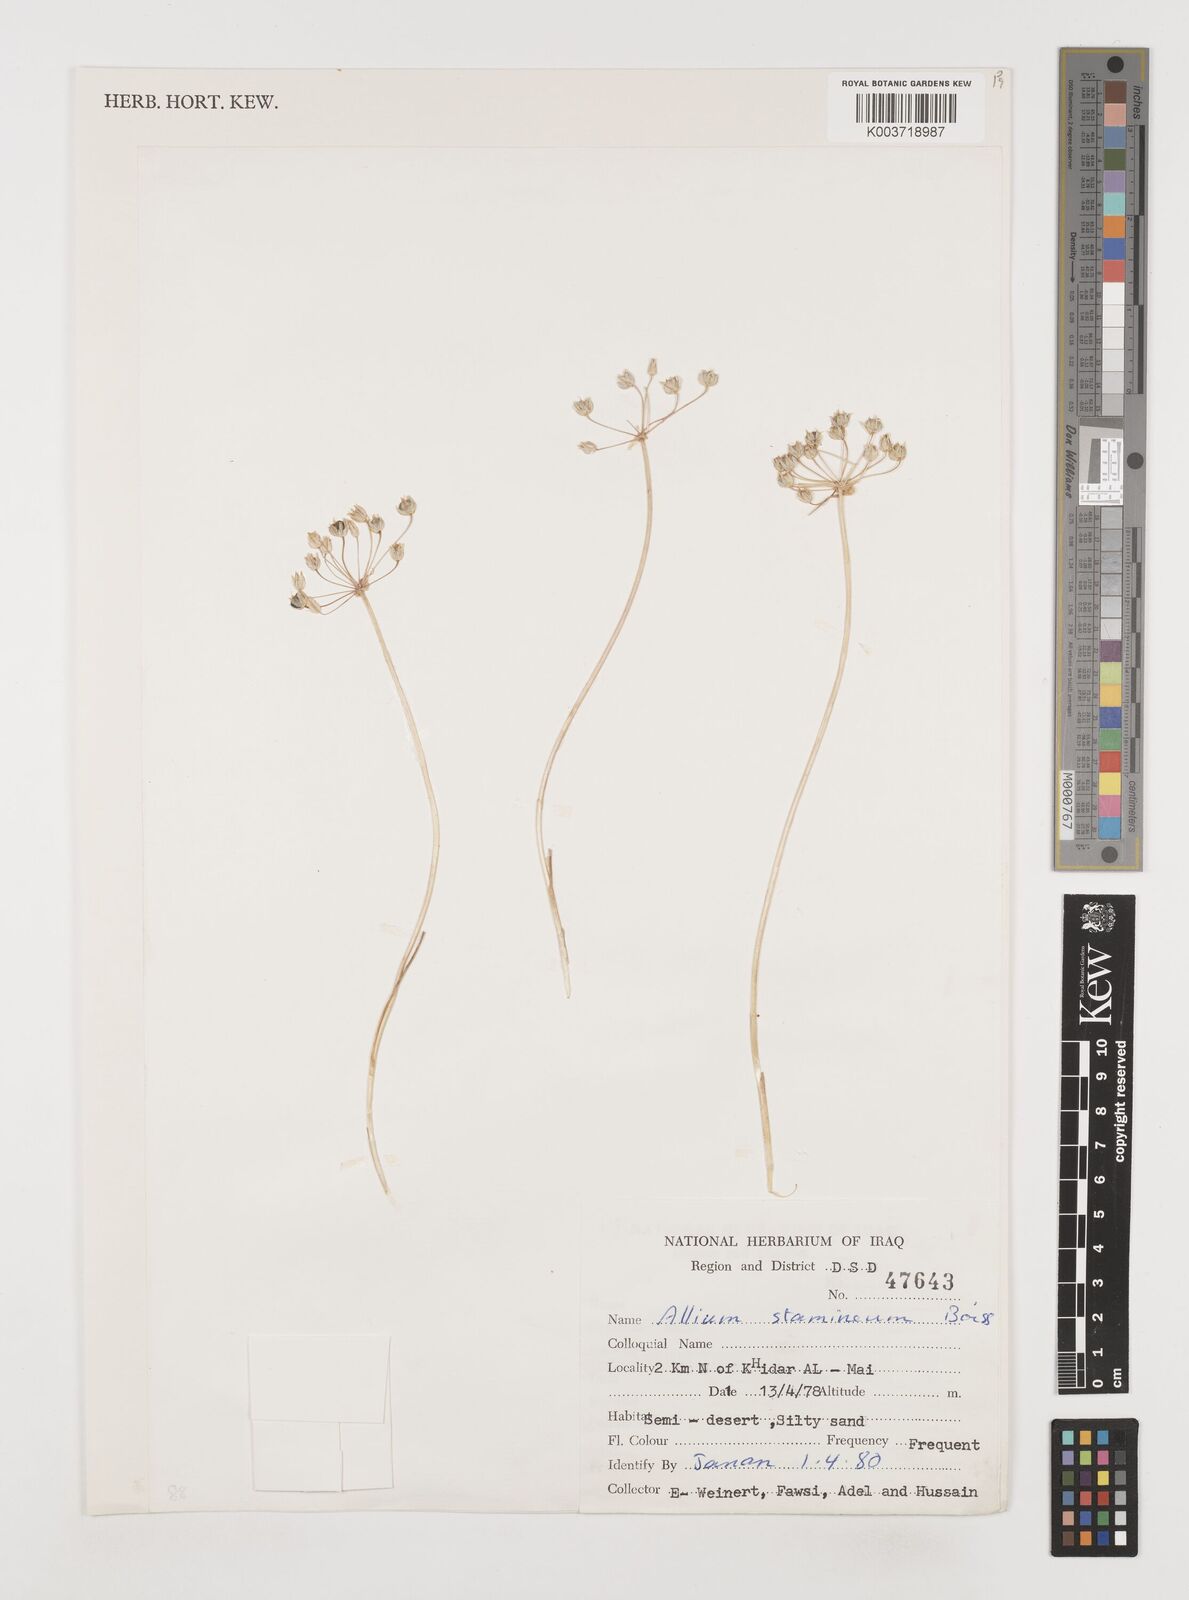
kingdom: Plantae
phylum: Tracheophyta
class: Liliopsida
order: Asparagales
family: Amaryllidaceae
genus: Allium
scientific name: Allium stamineum
